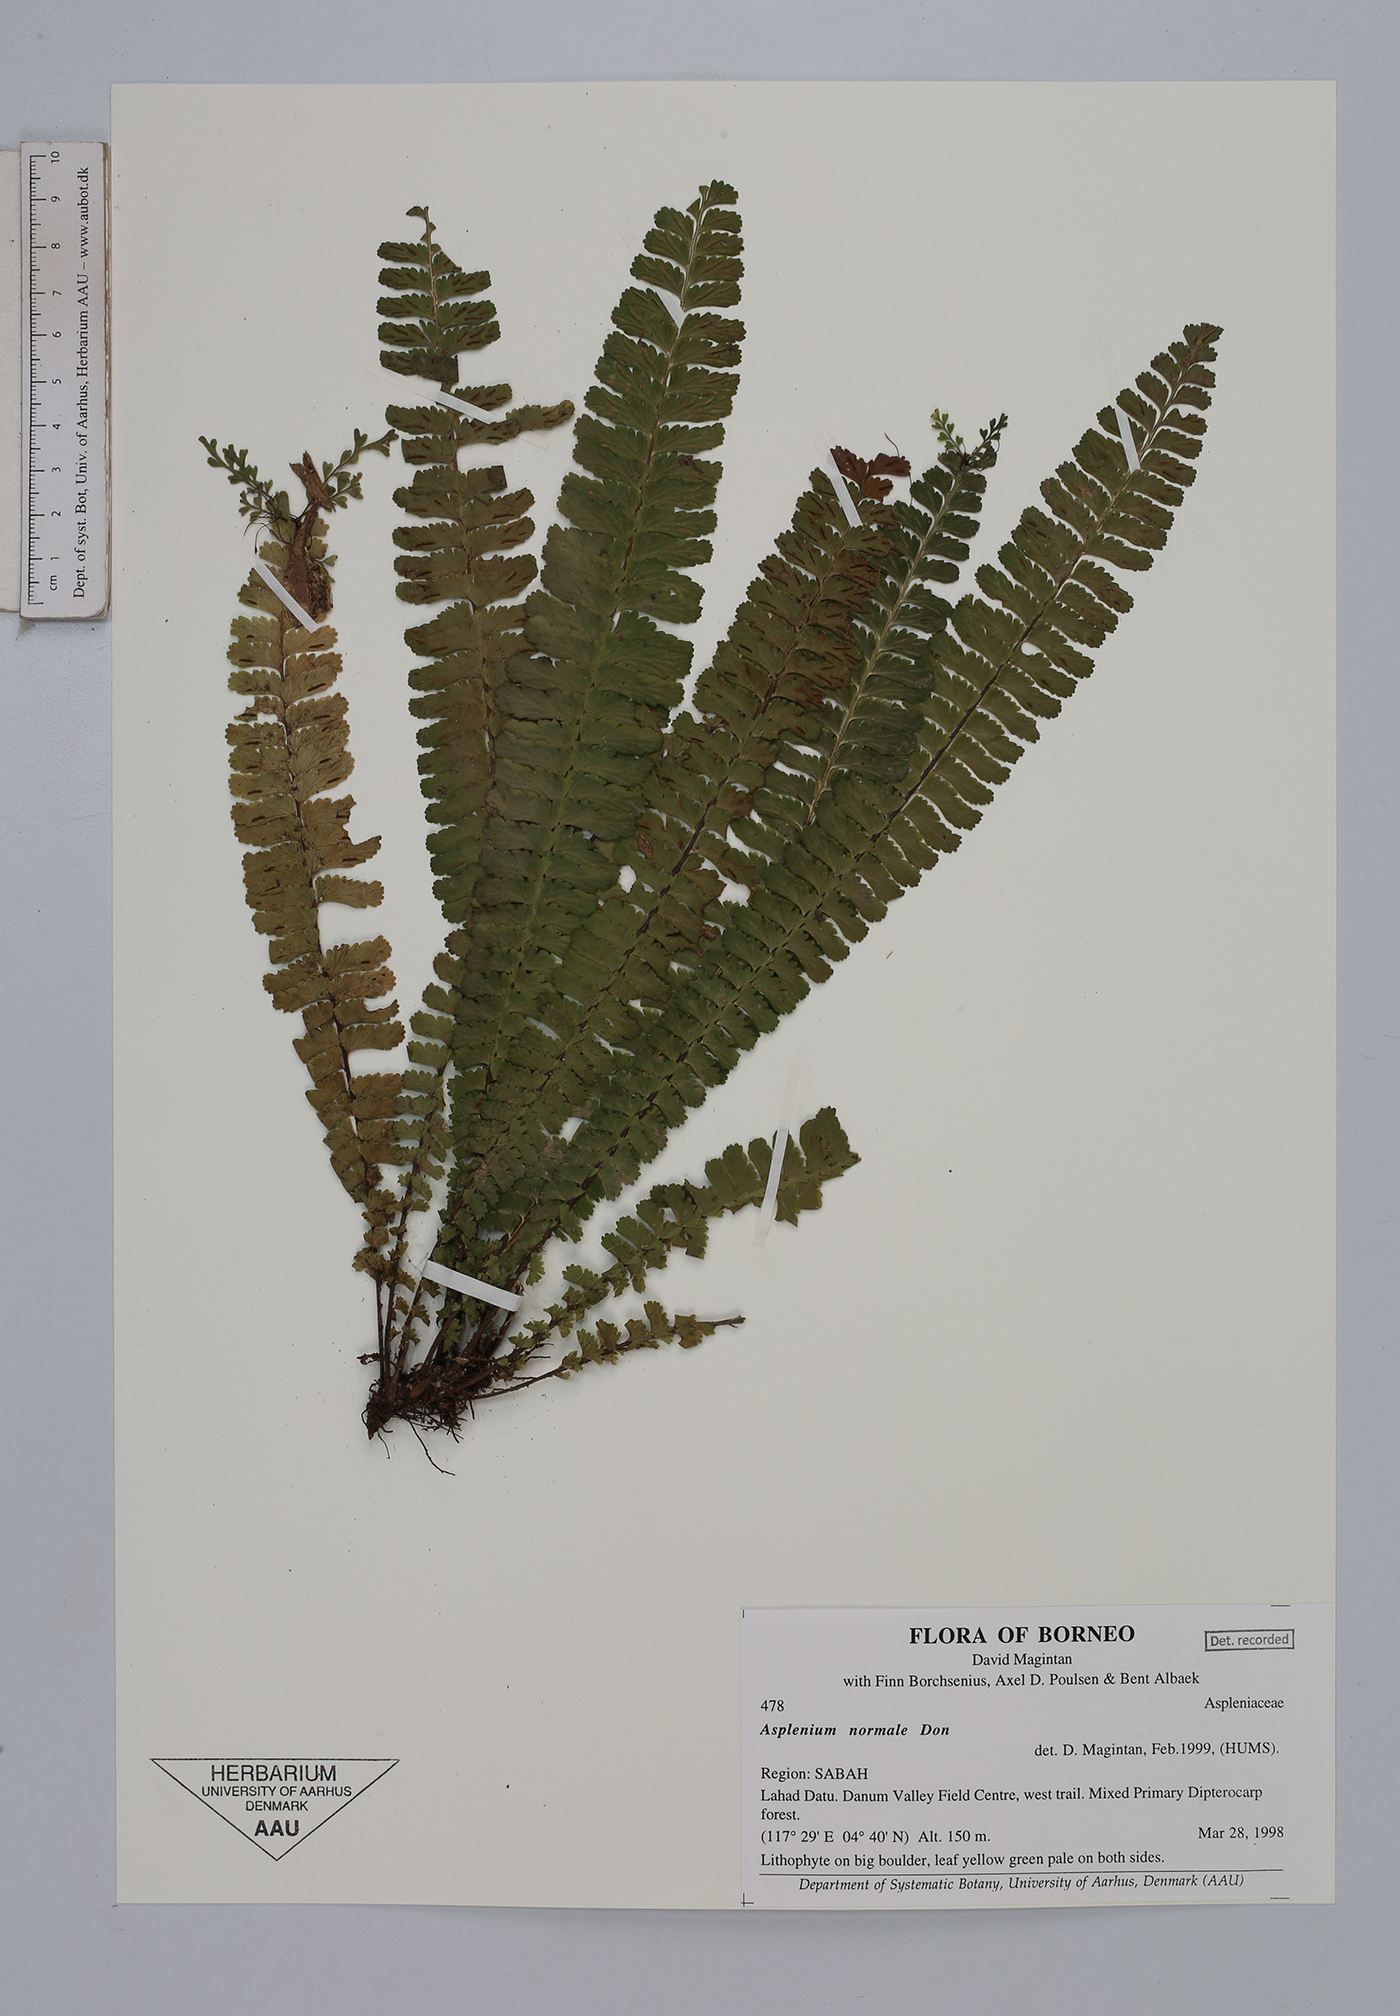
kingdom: Plantae
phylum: Tracheophyta
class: Polypodiopsida
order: Polypodiales
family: Aspleniaceae
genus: Asplenium
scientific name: Asplenium normale
